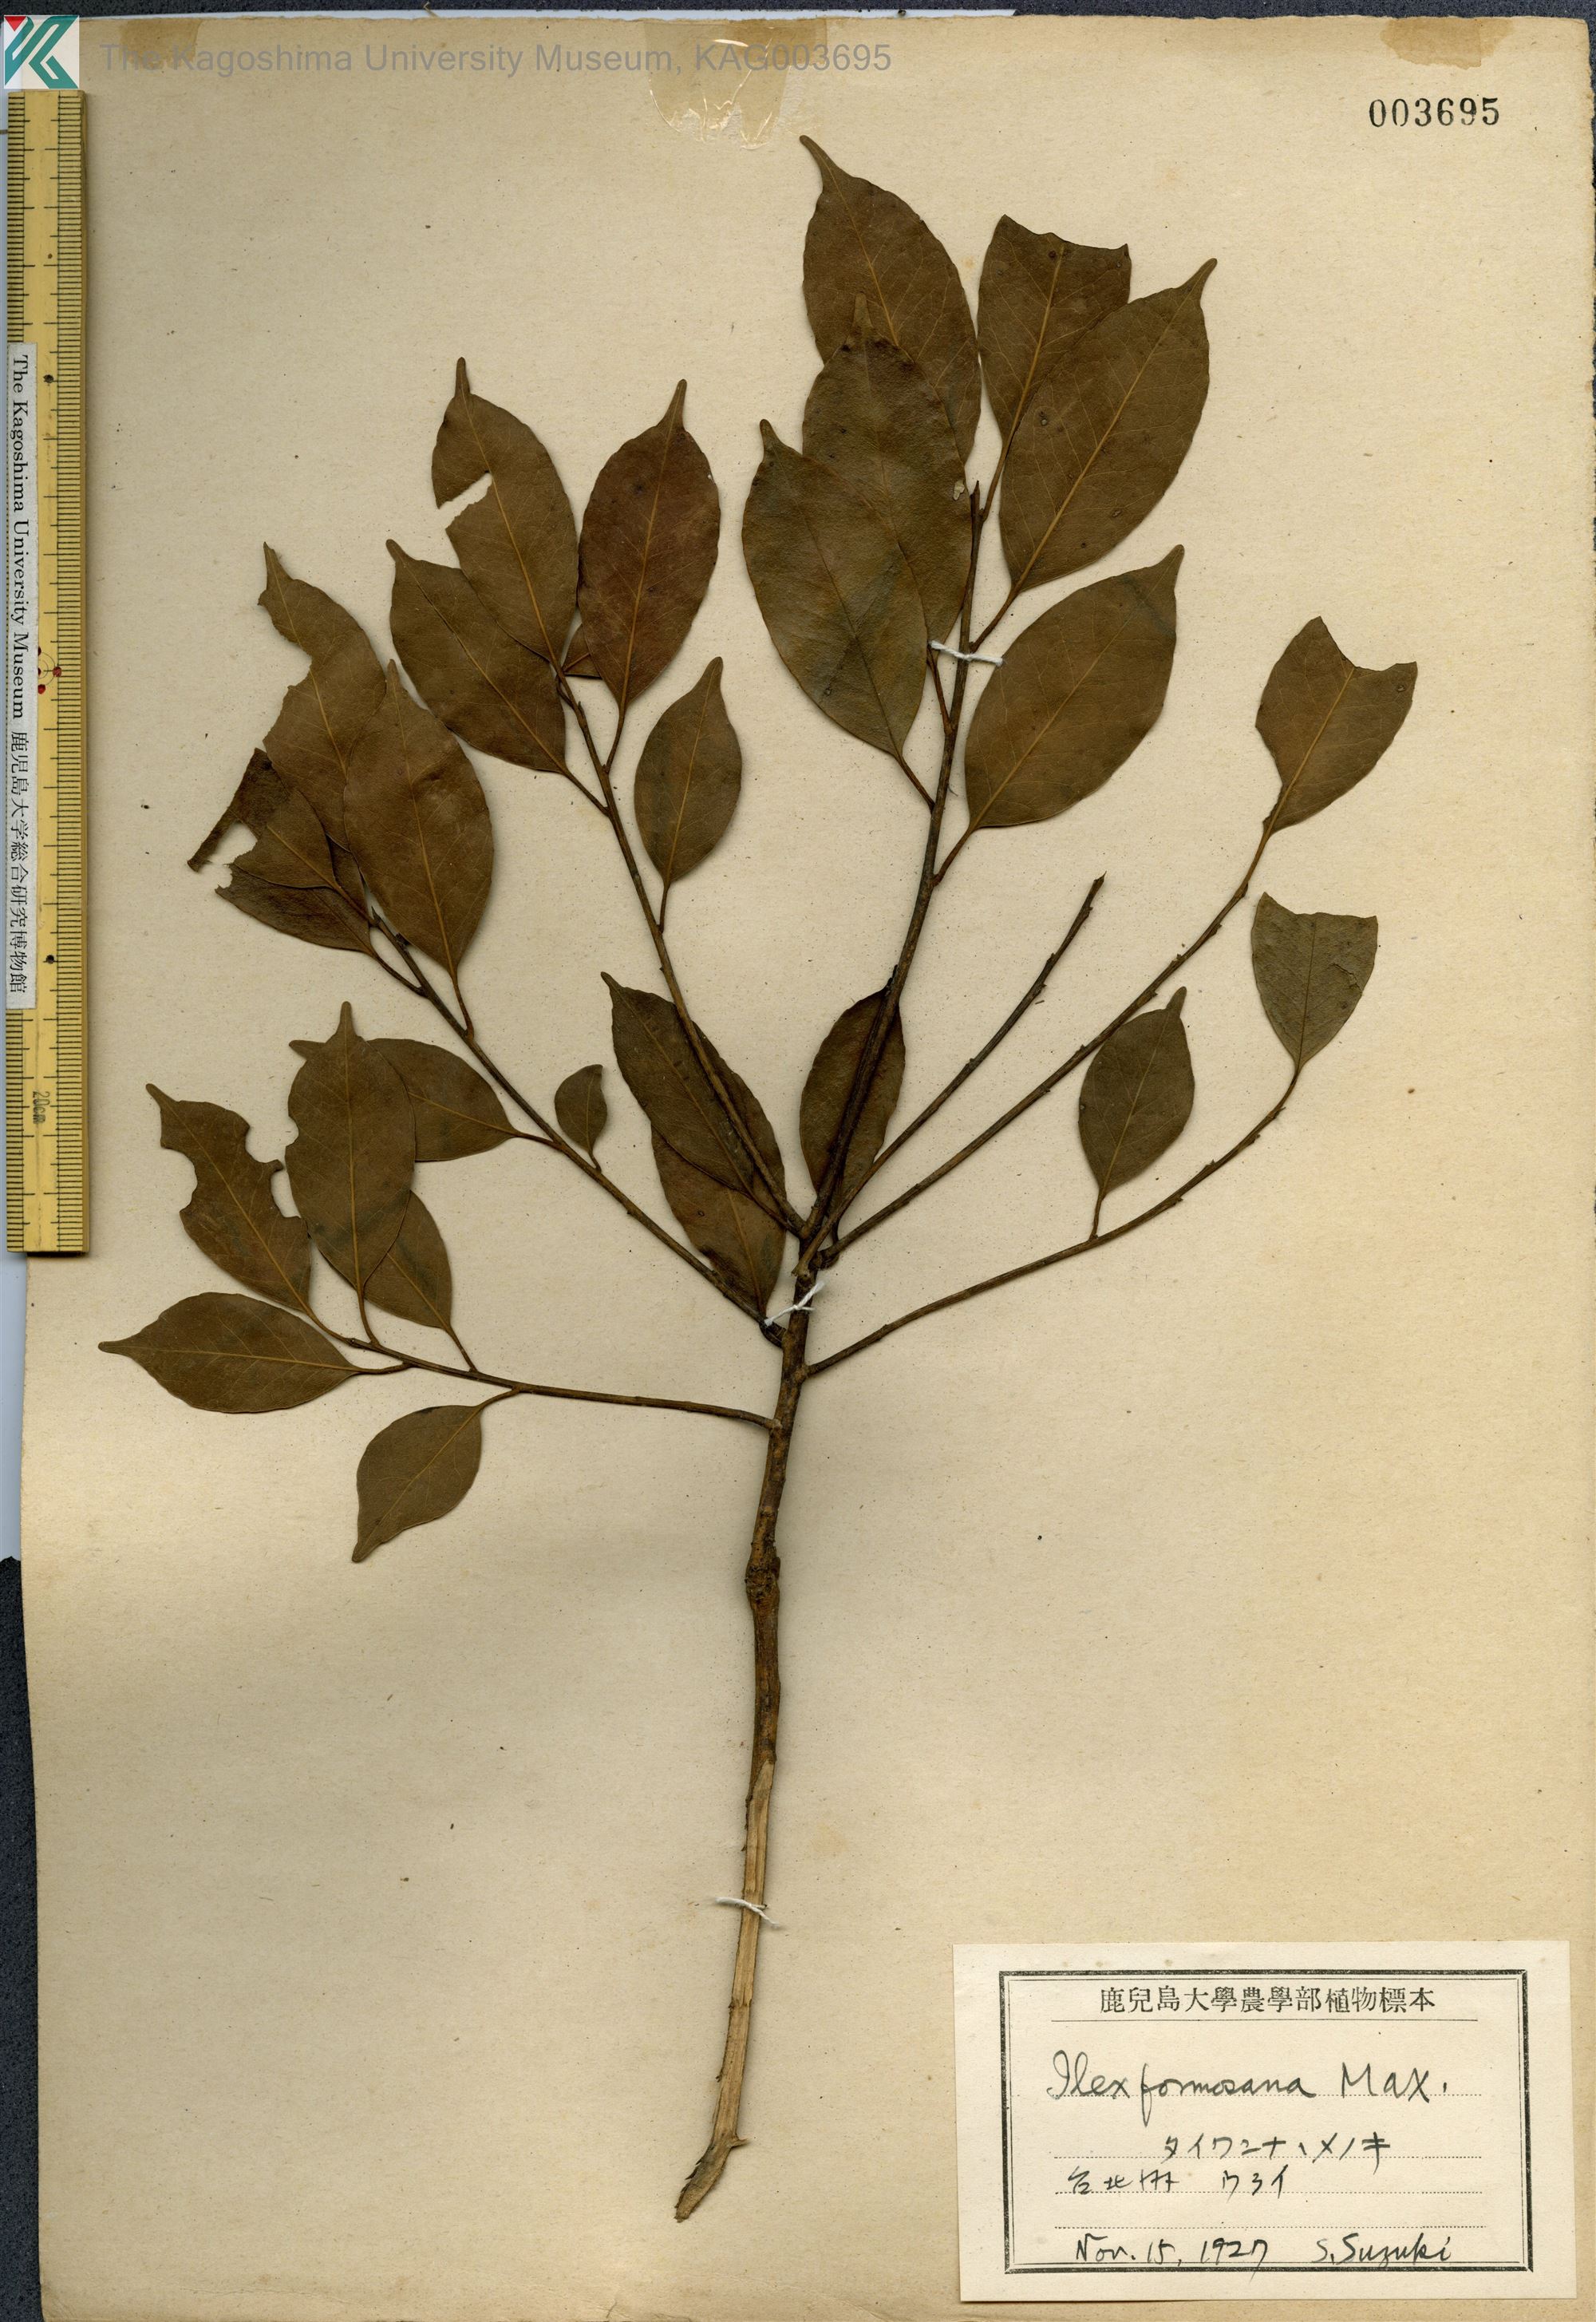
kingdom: Plantae
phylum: Tracheophyta
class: Magnoliopsida
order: Aquifoliales
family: Aquifoliaceae
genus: Ilex
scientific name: Ilex formosana
